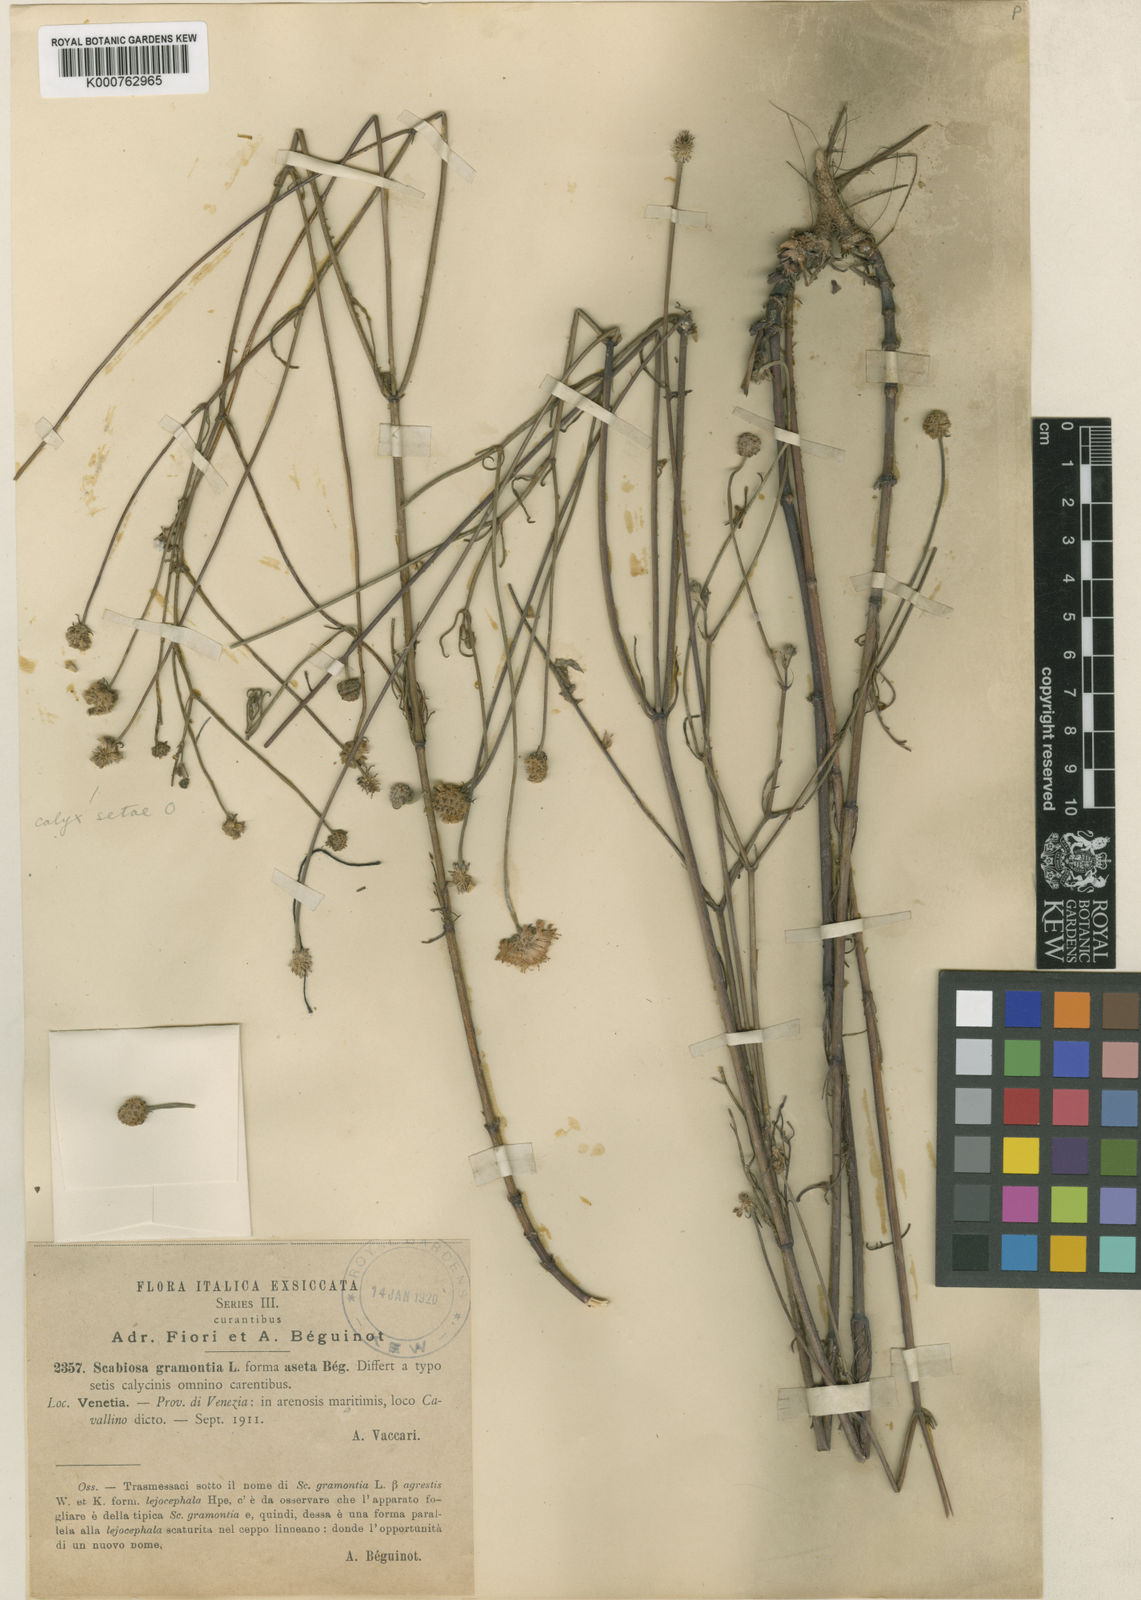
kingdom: Plantae
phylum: Tracheophyta
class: Magnoliopsida
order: Dipsacales
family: Caprifoliaceae
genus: Scabiosa
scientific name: Scabiosa triandra
